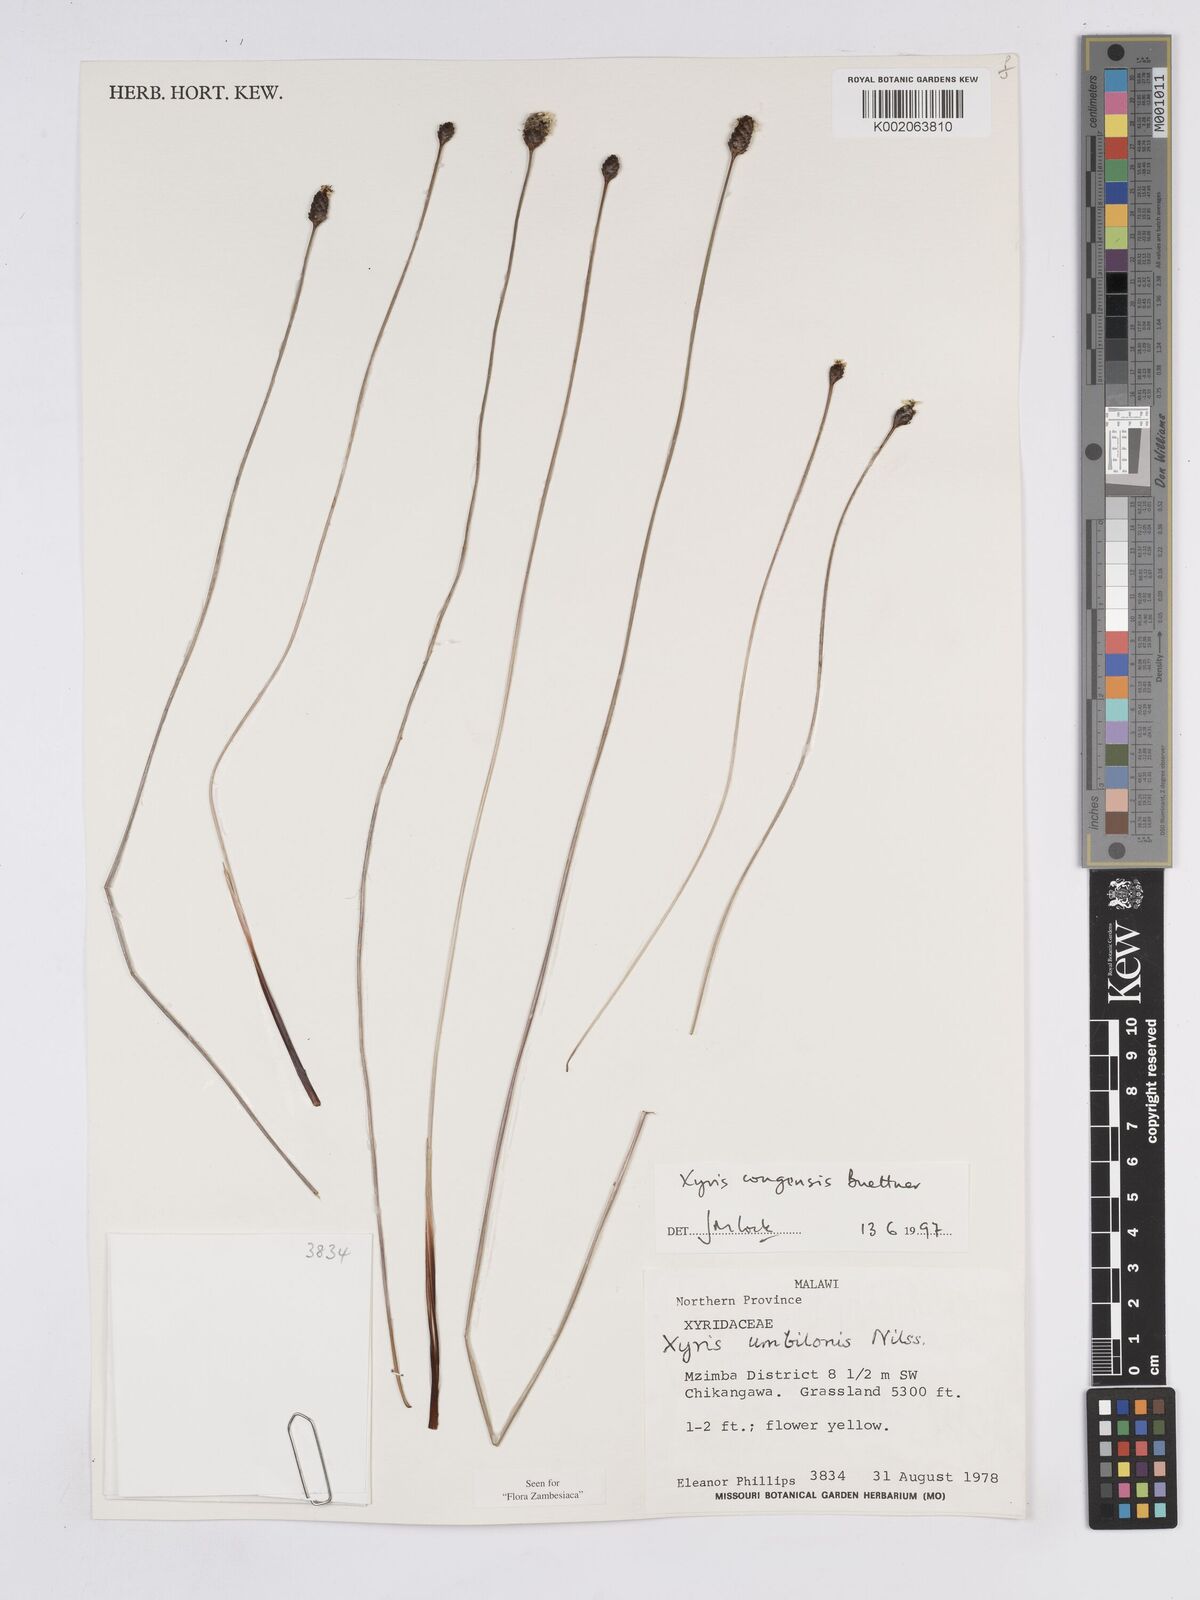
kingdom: Plantae
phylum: Tracheophyta
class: Liliopsida
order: Poales
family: Xyridaceae
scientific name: Xyridaceae
